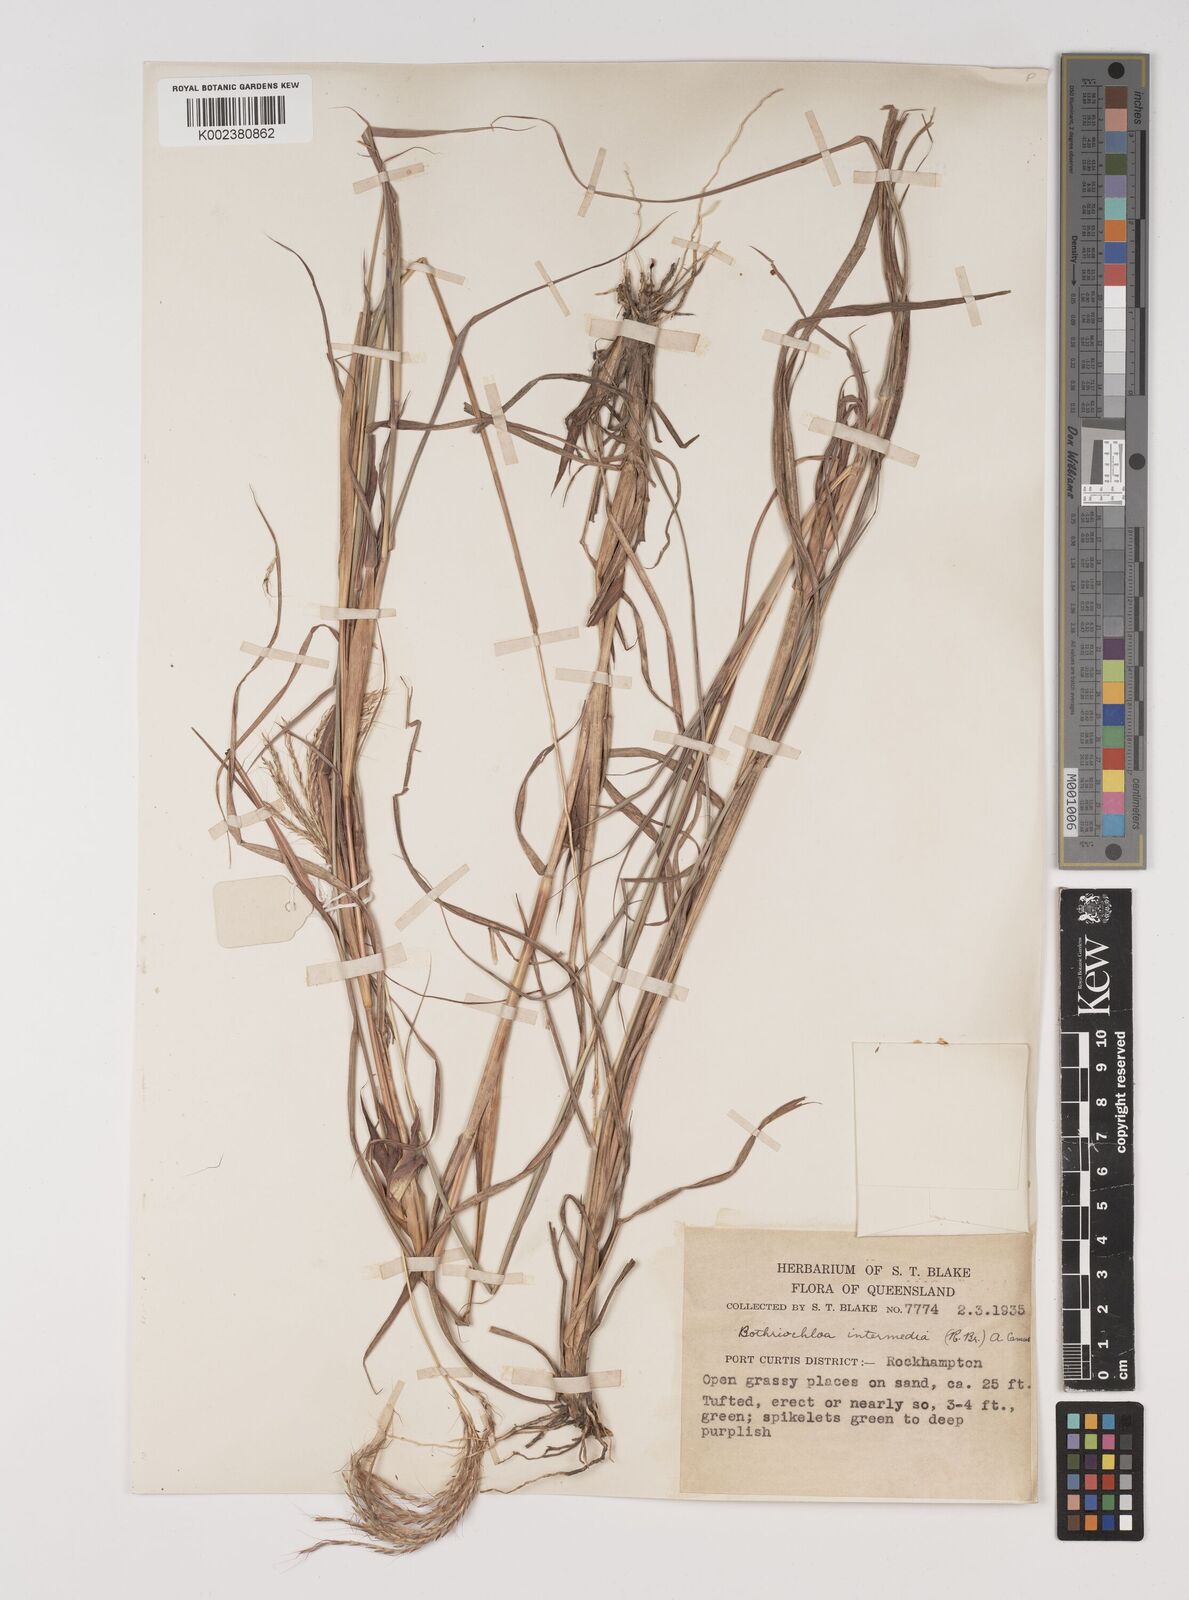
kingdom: Plantae
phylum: Tracheophyta
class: Liliopsida
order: Poales
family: Poaceae
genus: Bothriochloa
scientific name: Bothriochloa bladhii
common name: Caucasian bluestem
